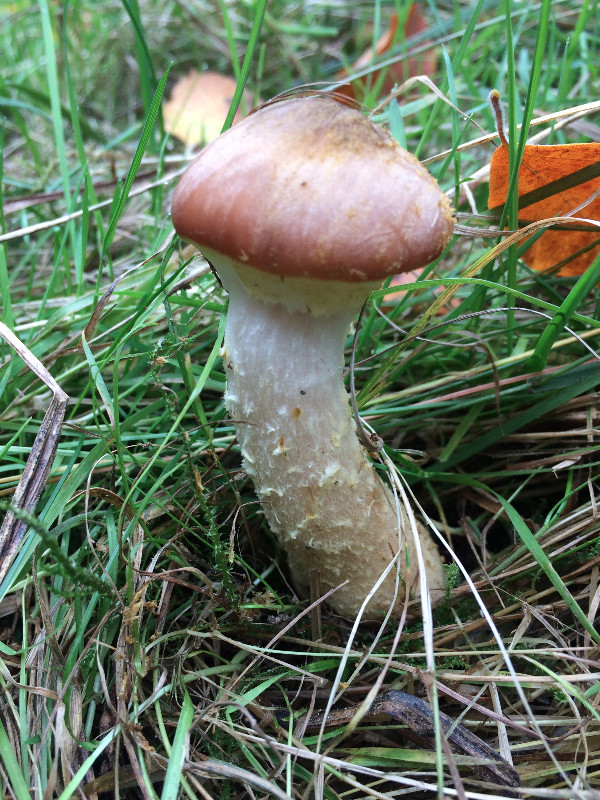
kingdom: Fungi
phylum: Basidiomycota
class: Agaricomycetes
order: Agaricales
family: Physalacriaceae
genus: Armillaria
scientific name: Armillaria lutea
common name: køllestokket honningsvamp
